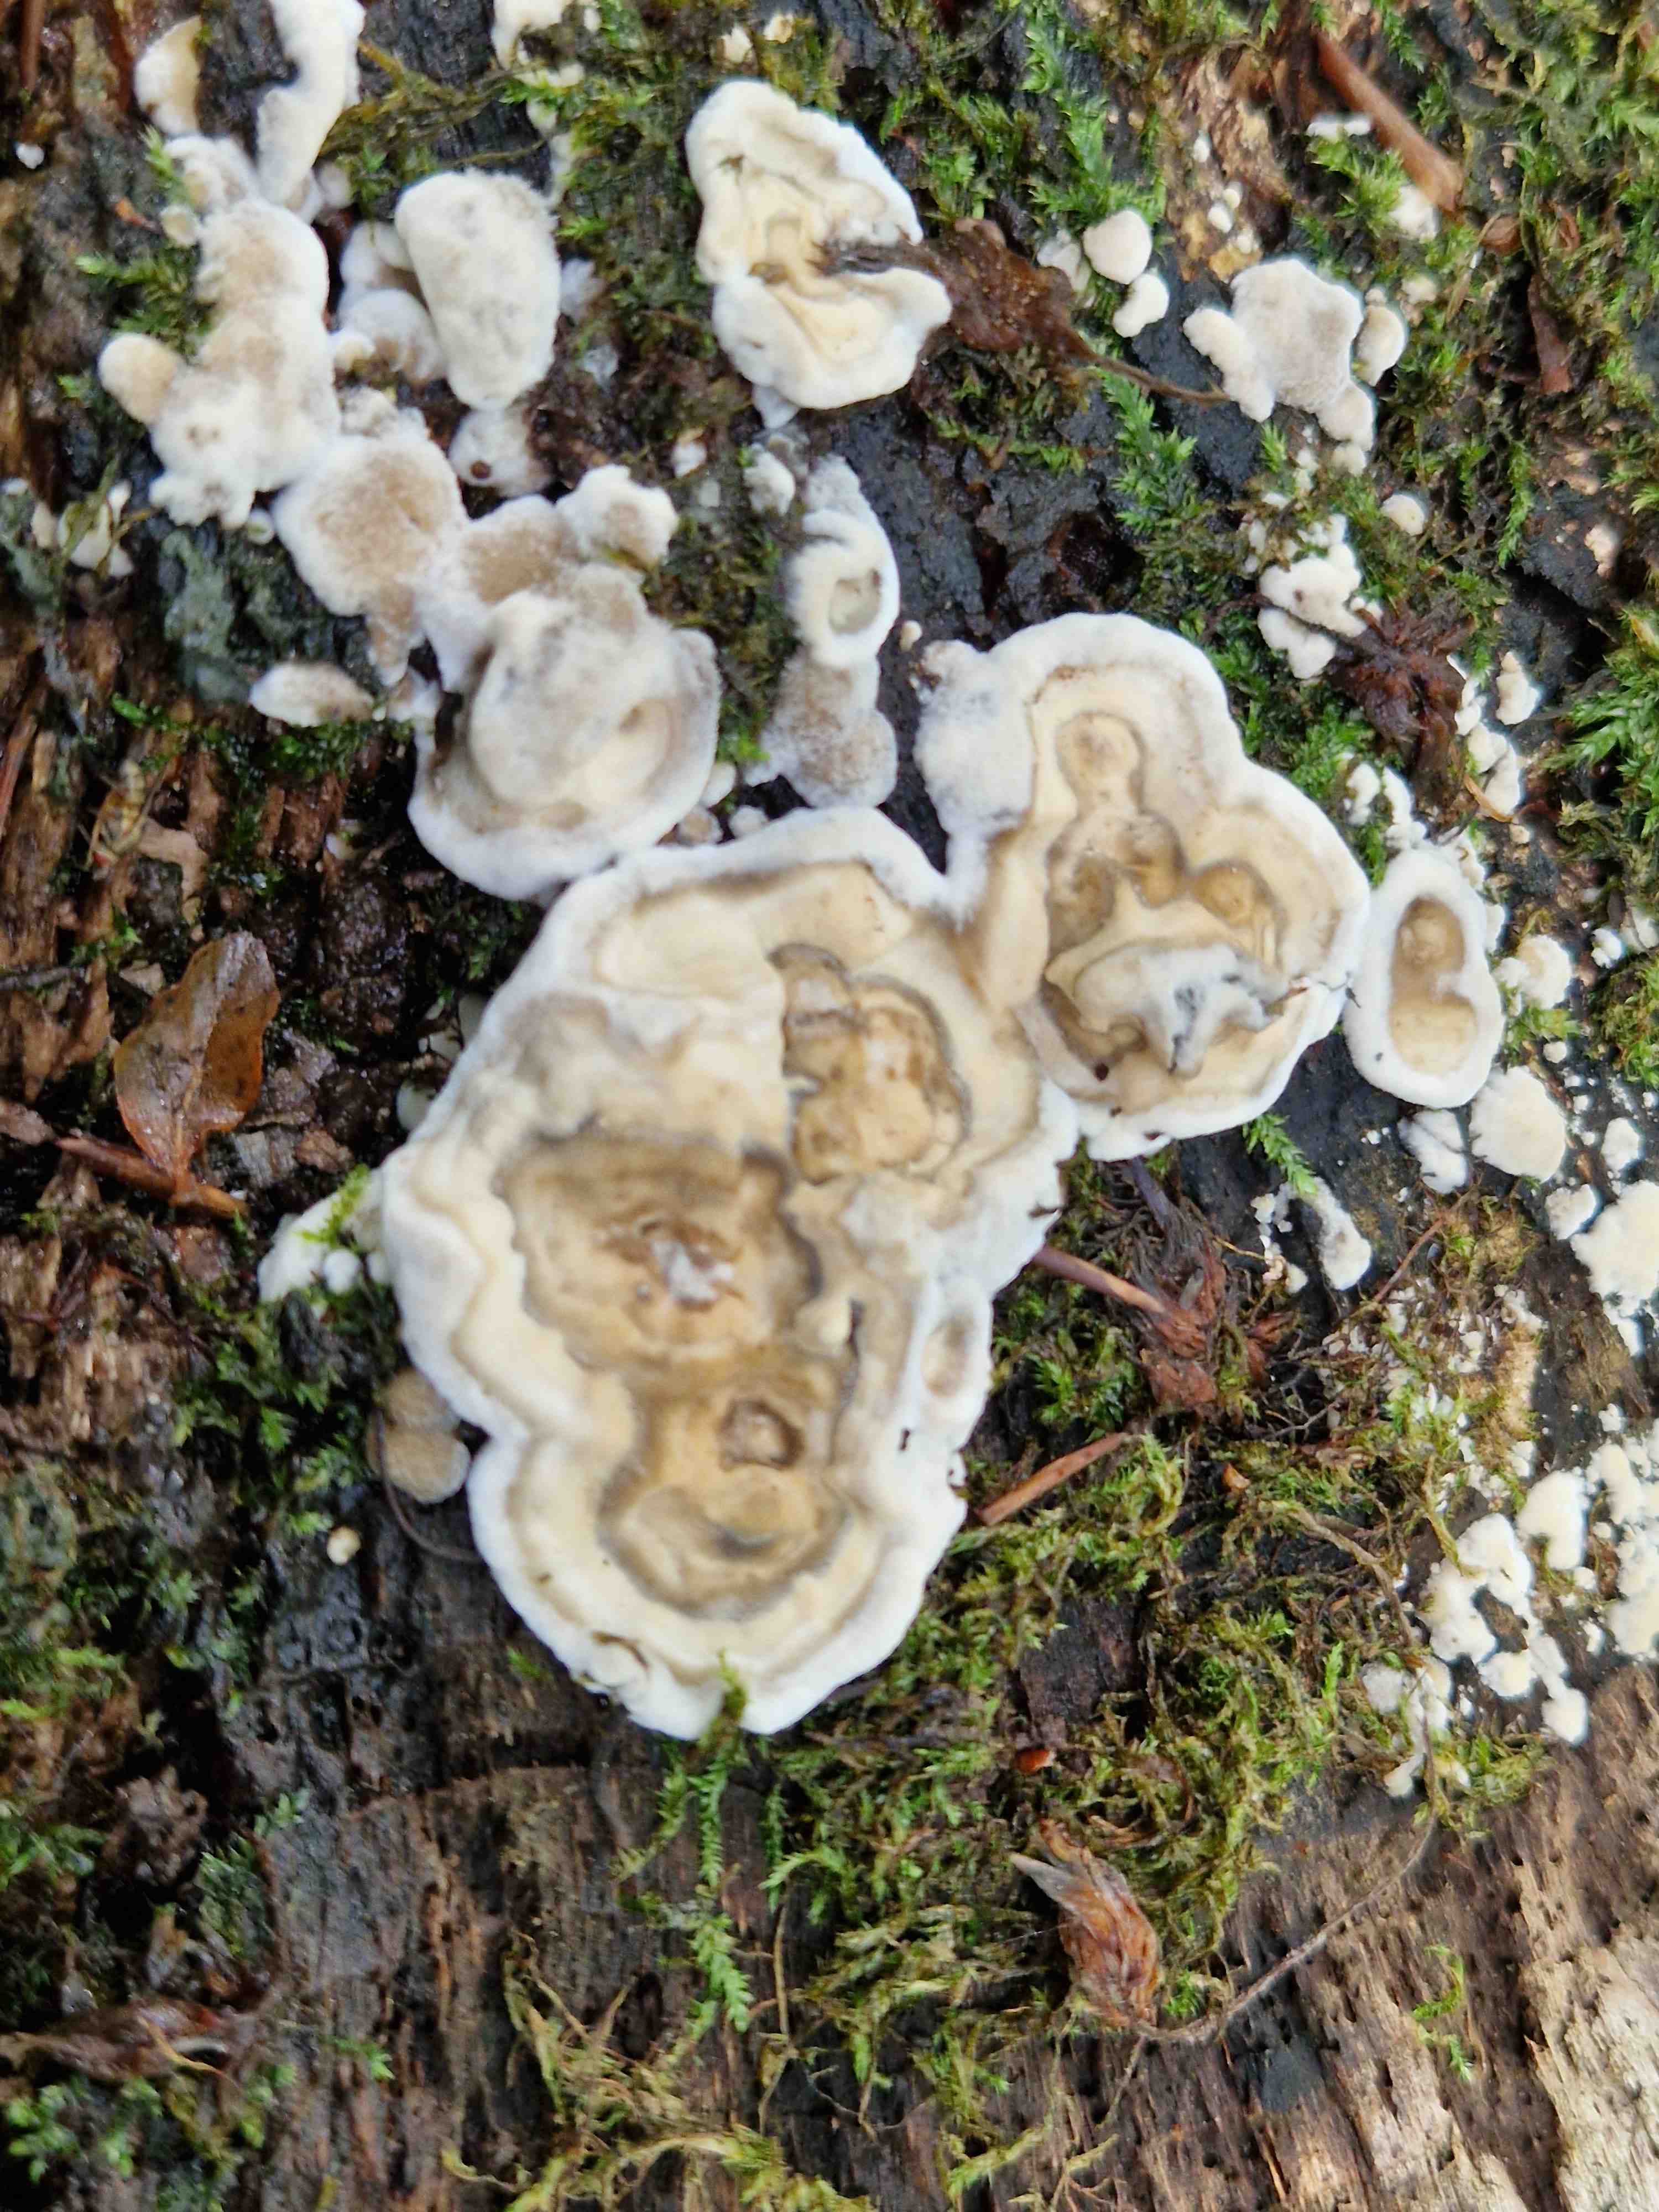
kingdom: Fungi
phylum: Basidiomycota
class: Agaricomycetes
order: Polyporales
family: Phanerochaetaceae
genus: Bjerkandera
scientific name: Bjerkandera adusta
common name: sveden sodporesvamp
